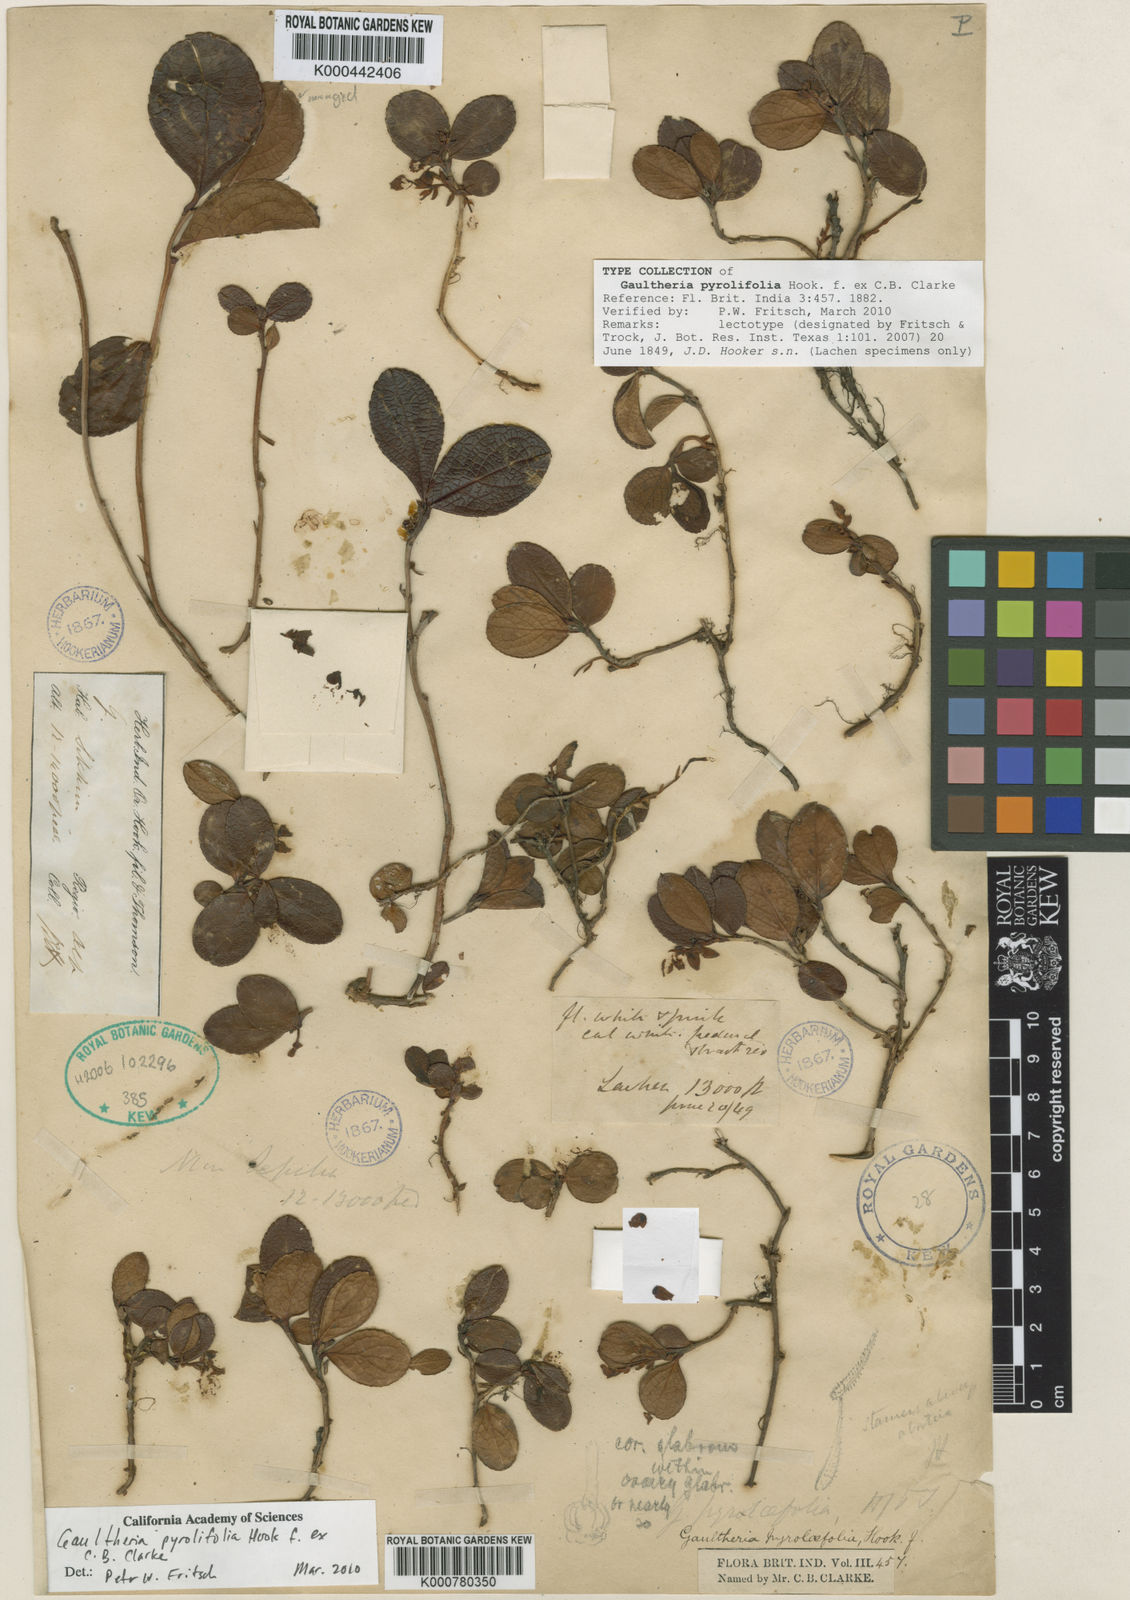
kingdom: Plantae
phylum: Tracheophyta
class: Magnoliopsida
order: Ericales
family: Ericaceae
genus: Gaultheria
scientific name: Gaultheria pyrolifolia
